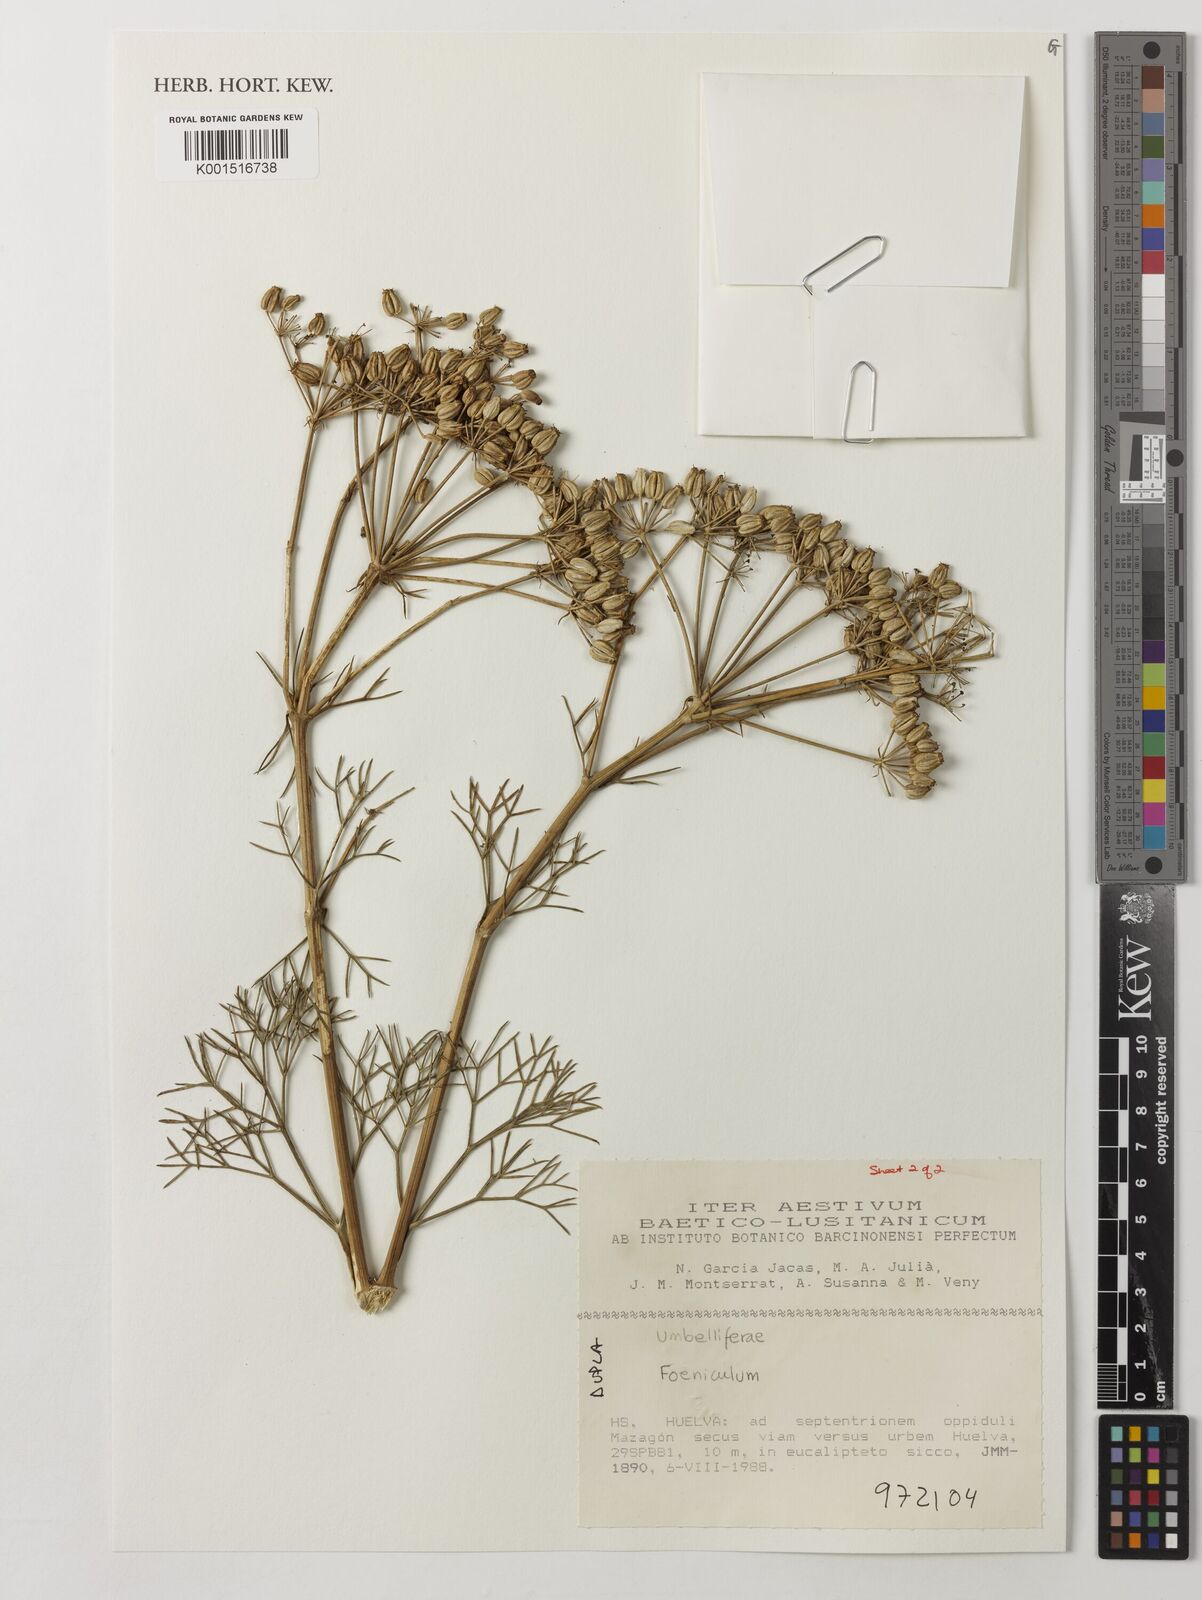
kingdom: Plantae
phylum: Tracheophyta
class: Magnoliopsida
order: Apiales
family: Apiaceae
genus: Foeniculum
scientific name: Foeniculum
